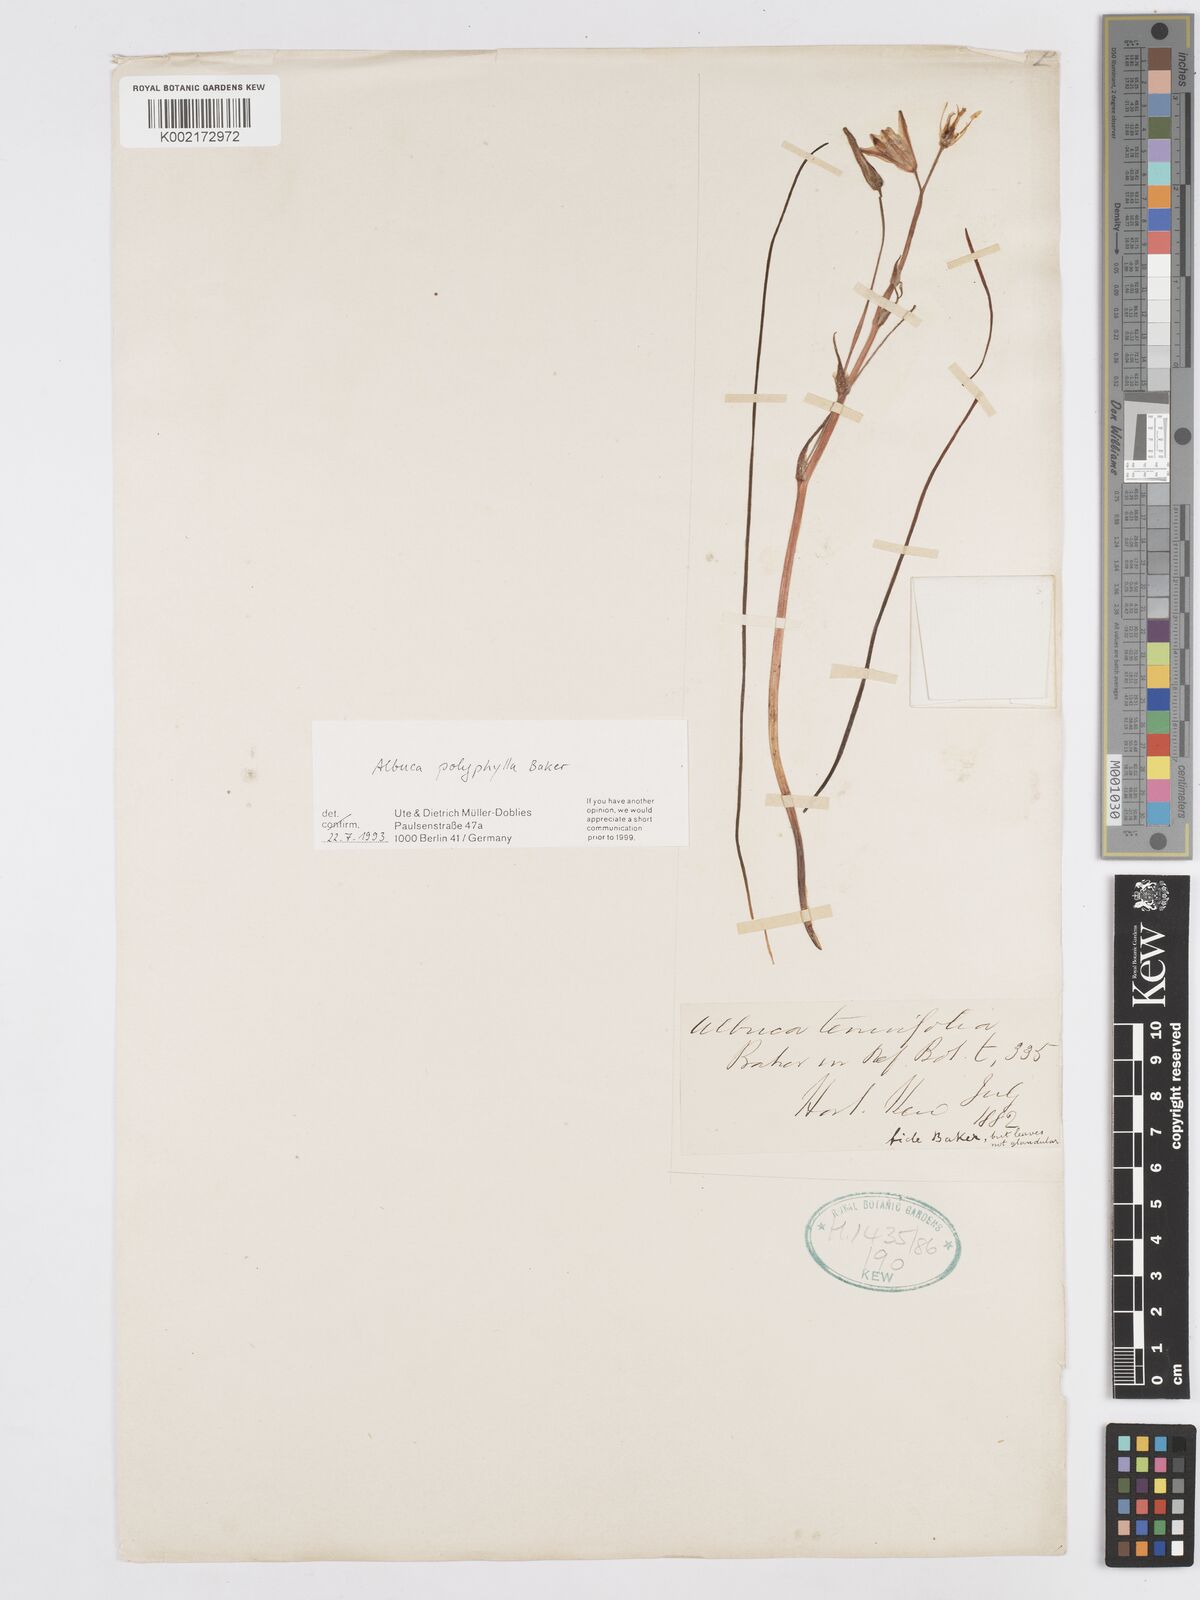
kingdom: Plantae
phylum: Tracheophyta
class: Liliopsida
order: Asparagales
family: Asparagaceae
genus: Albuca
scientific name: Albuca polyphylla
